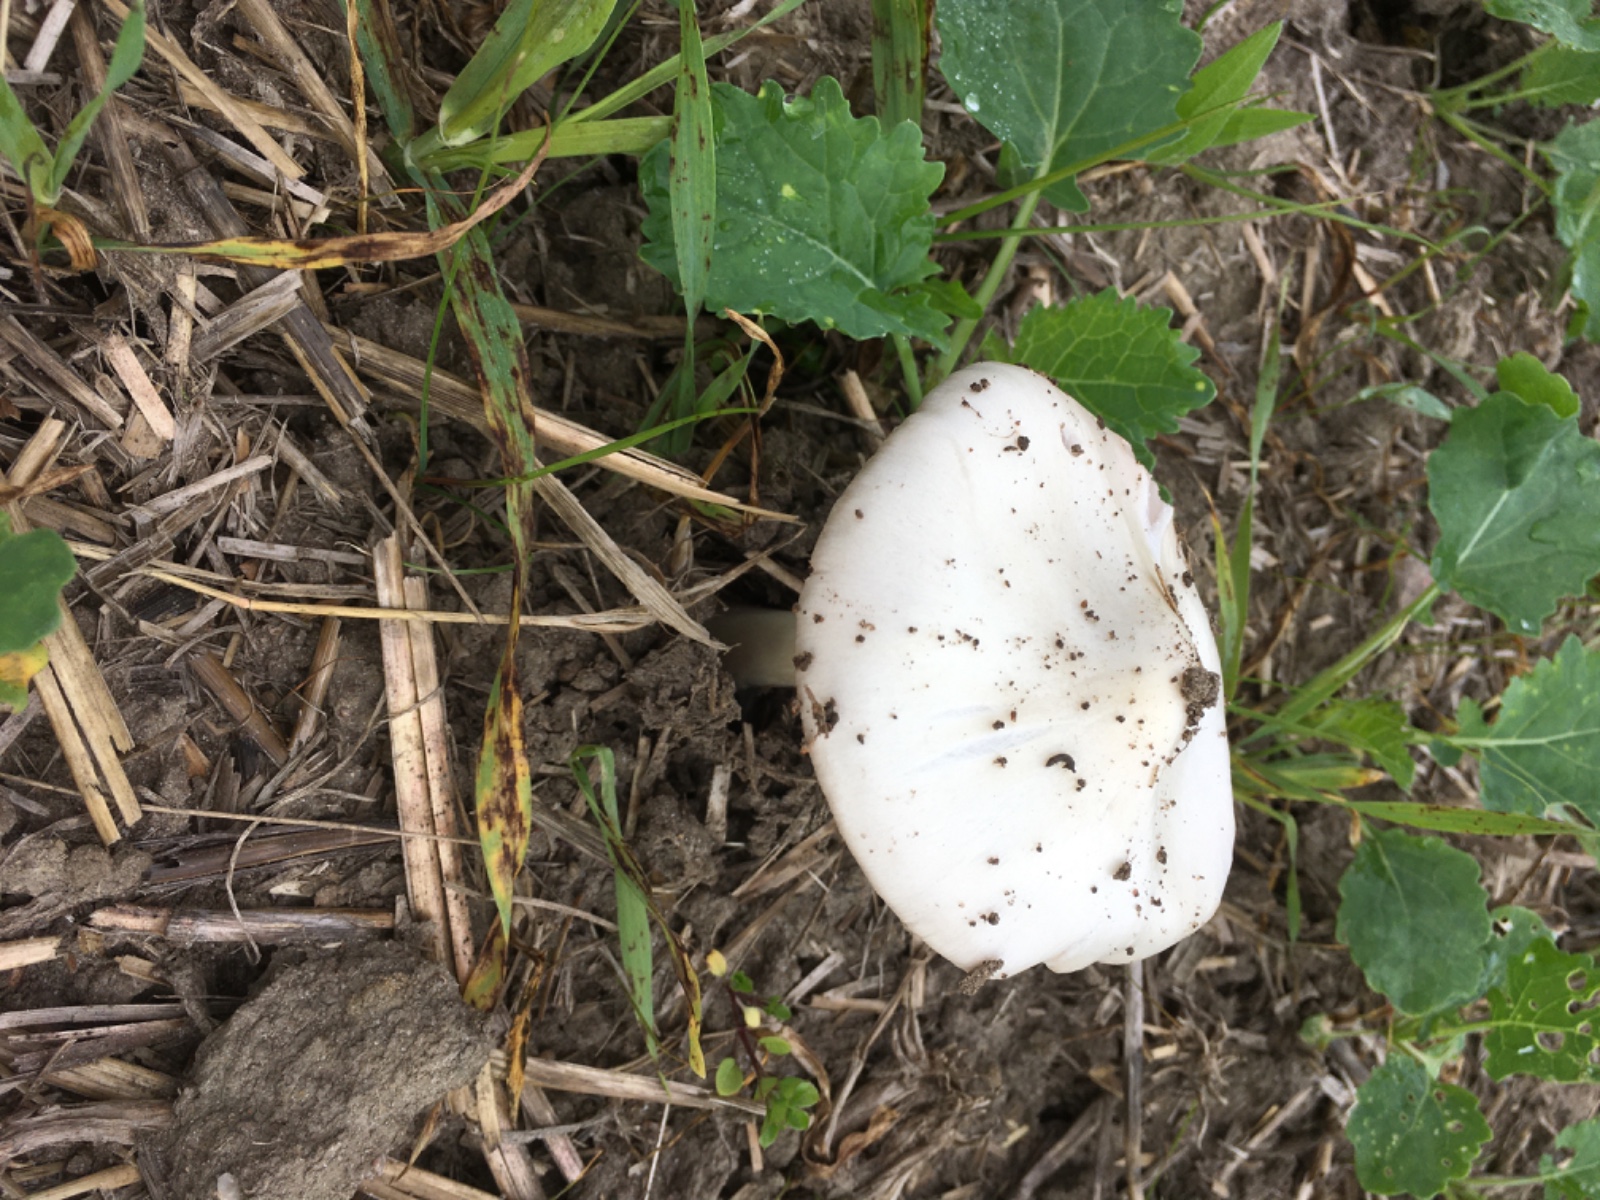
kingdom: Fungi
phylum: Basidiomycota
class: Agaricomycetes
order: Agaricales
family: Pluteaceae
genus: Volvopluteus
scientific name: Volvopluteus gloiocephalus
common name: høj posesvamp
